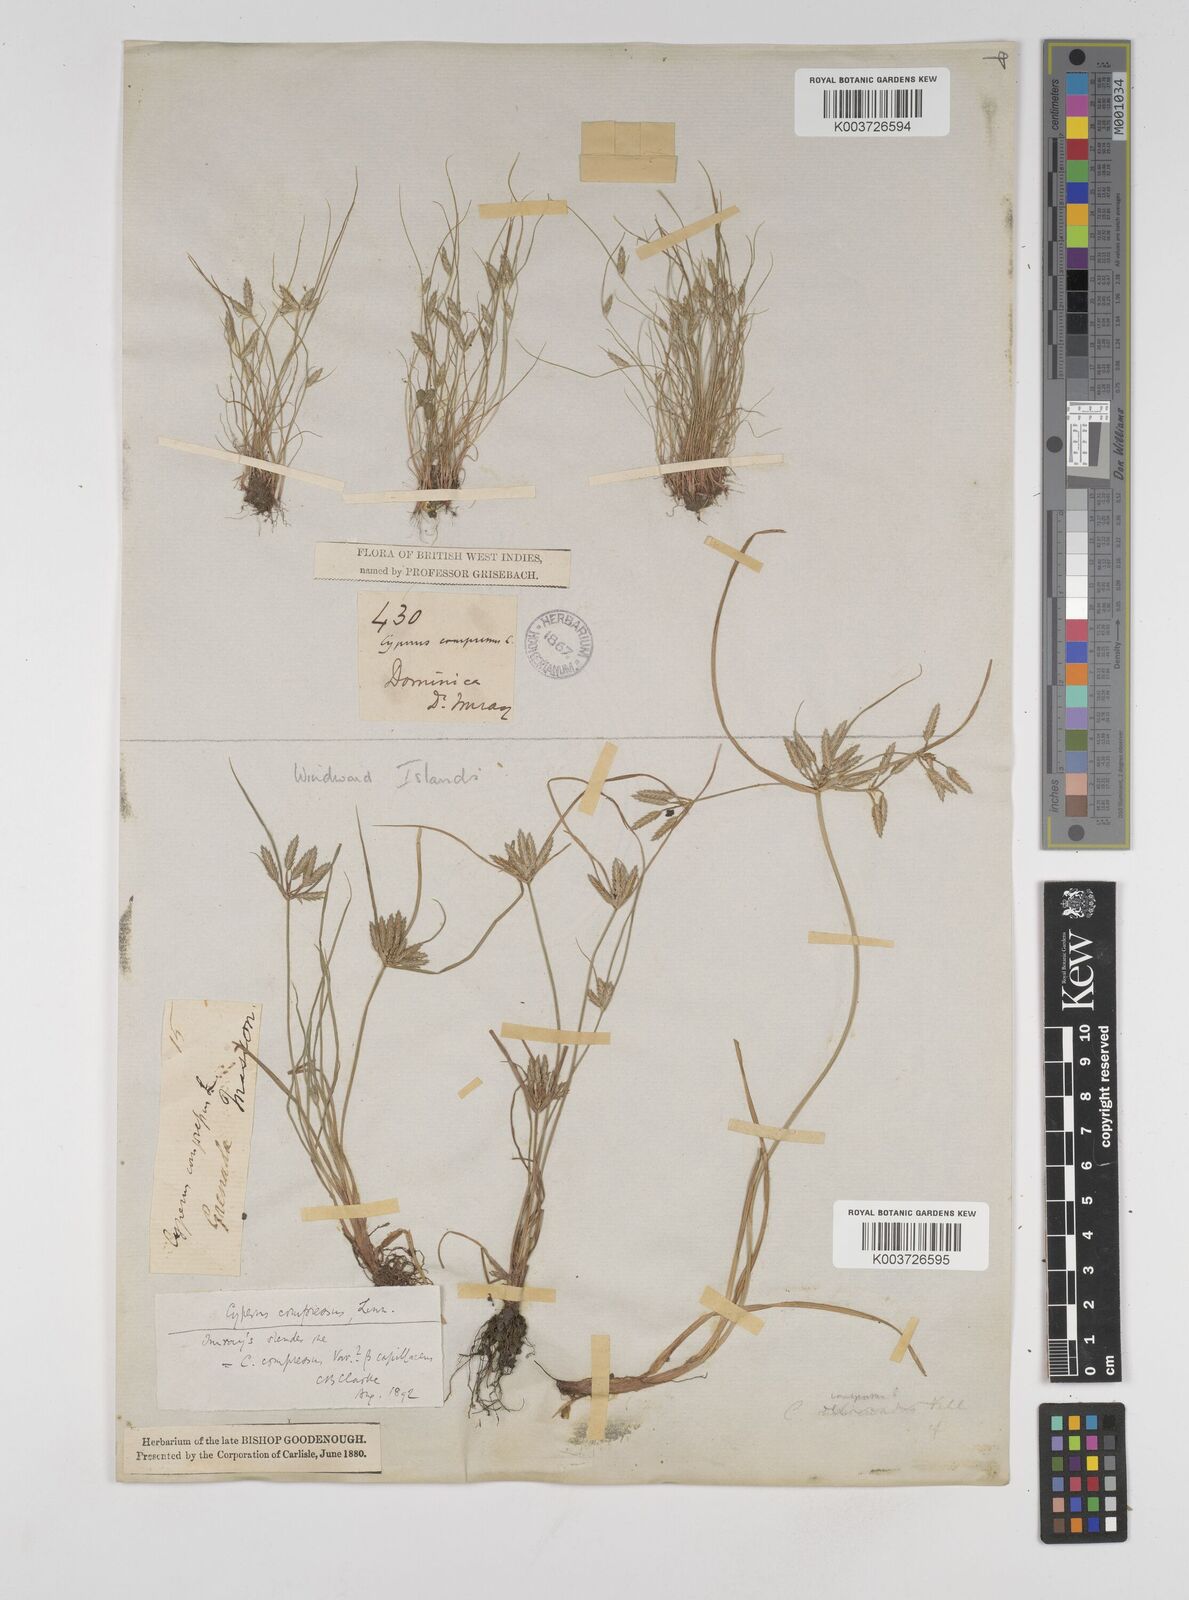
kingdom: Plantae
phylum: Tracheophyta
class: Liliopsida
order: Poales
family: Cyperaceae
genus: Cyperus
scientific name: Cyperus compressus
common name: Poorland flatsedge
